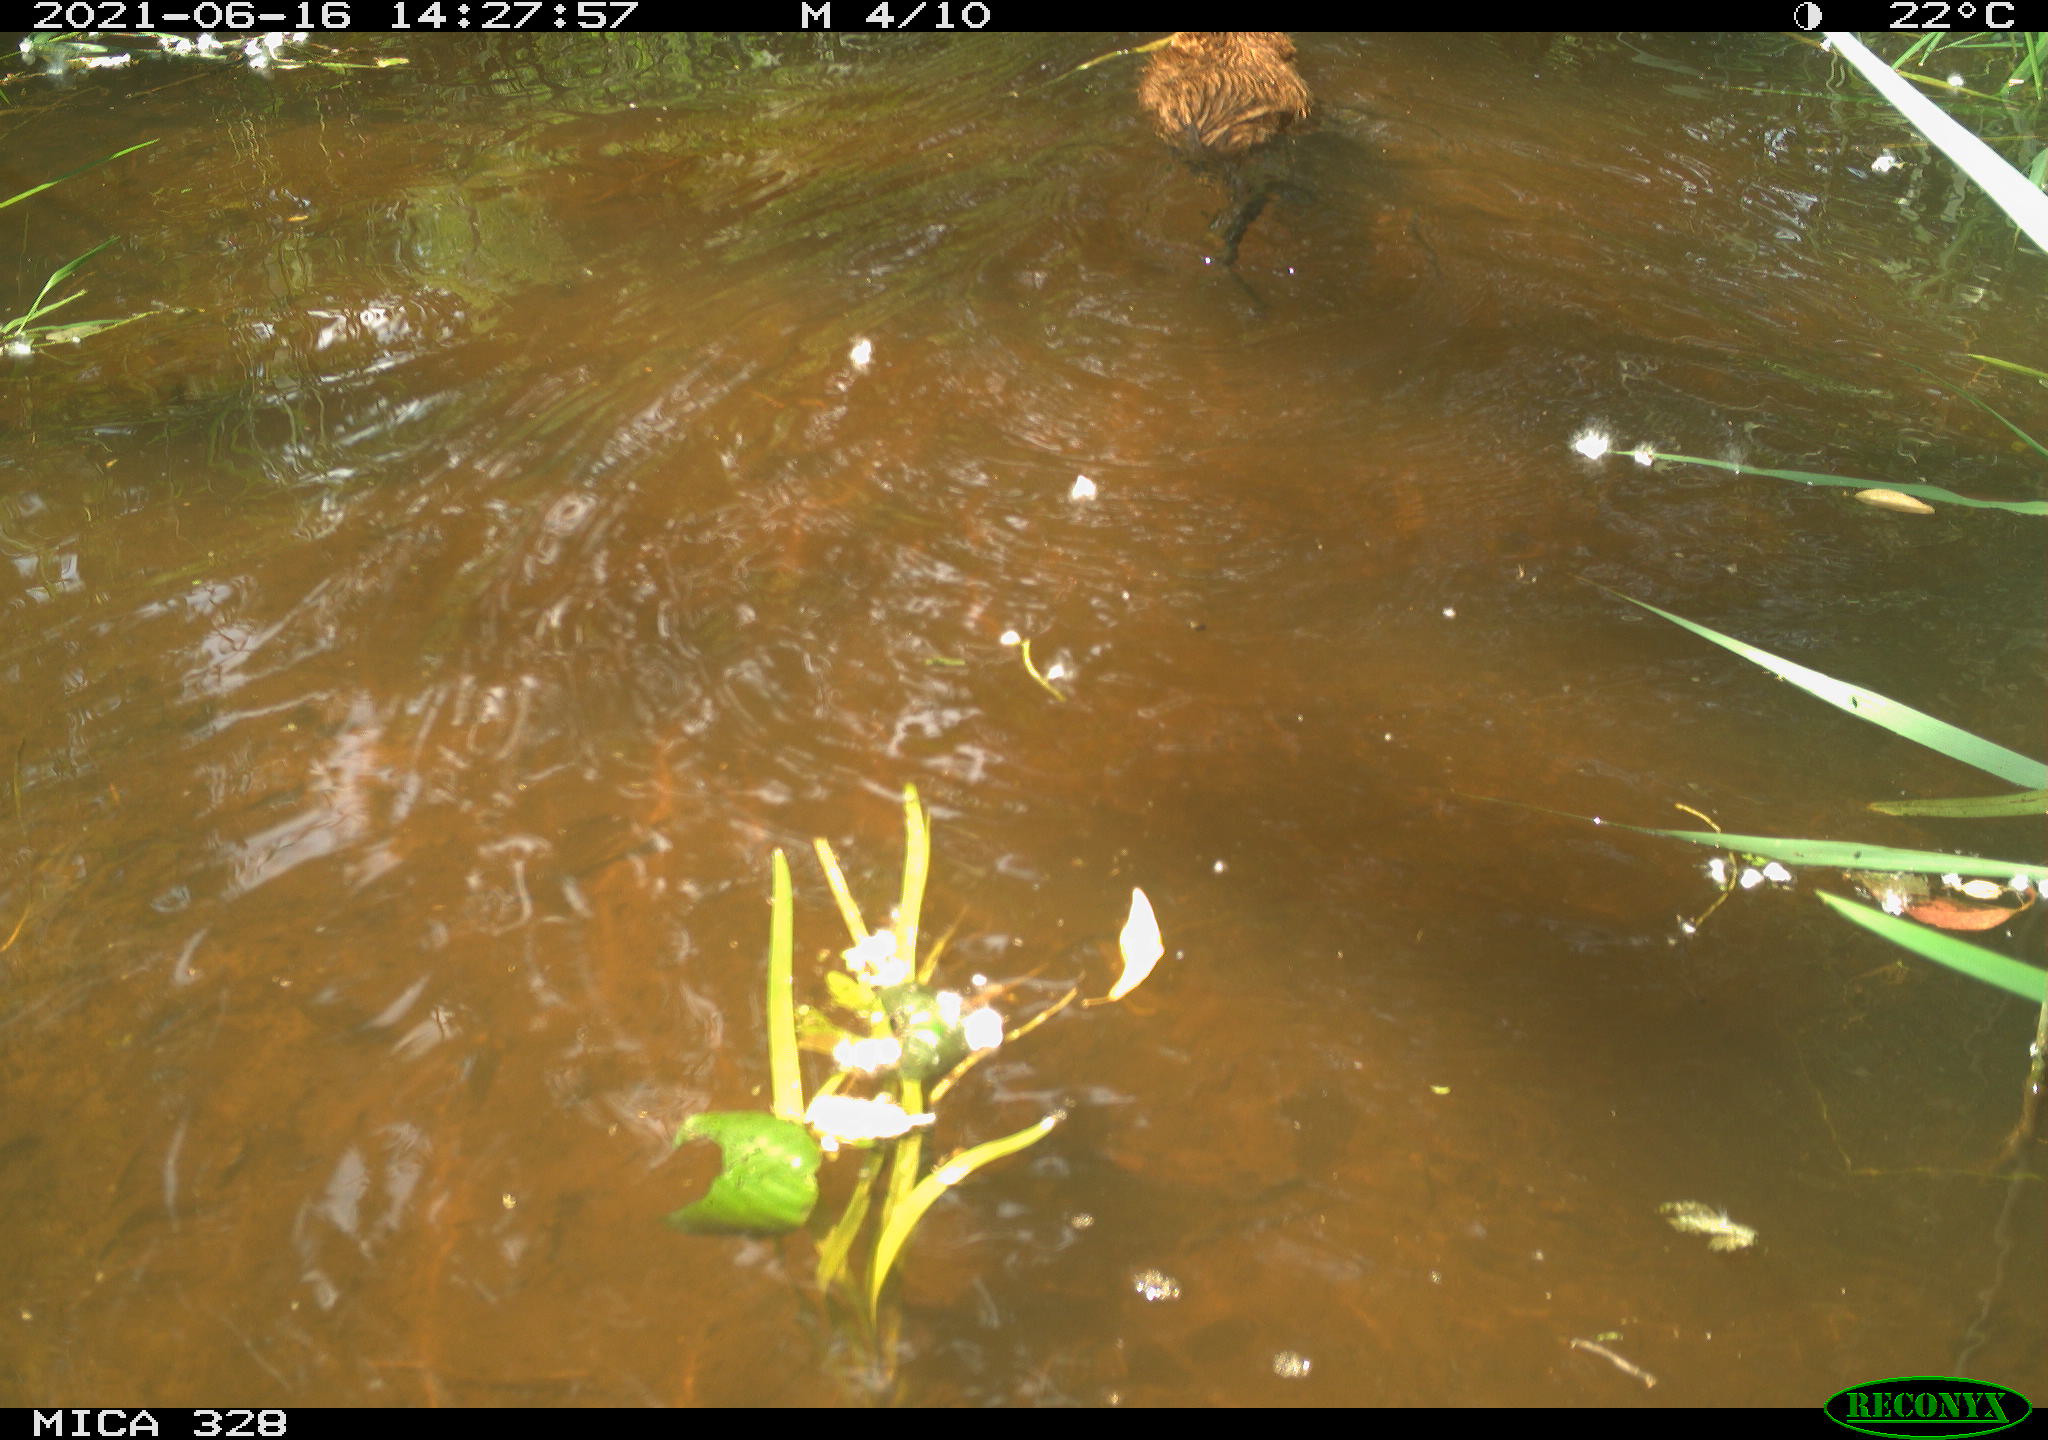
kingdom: Animalia
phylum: Chordata
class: Aves
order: Anseriformes
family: Anatidae
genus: Aix
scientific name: Aix galericulata
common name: Mandarin duck
